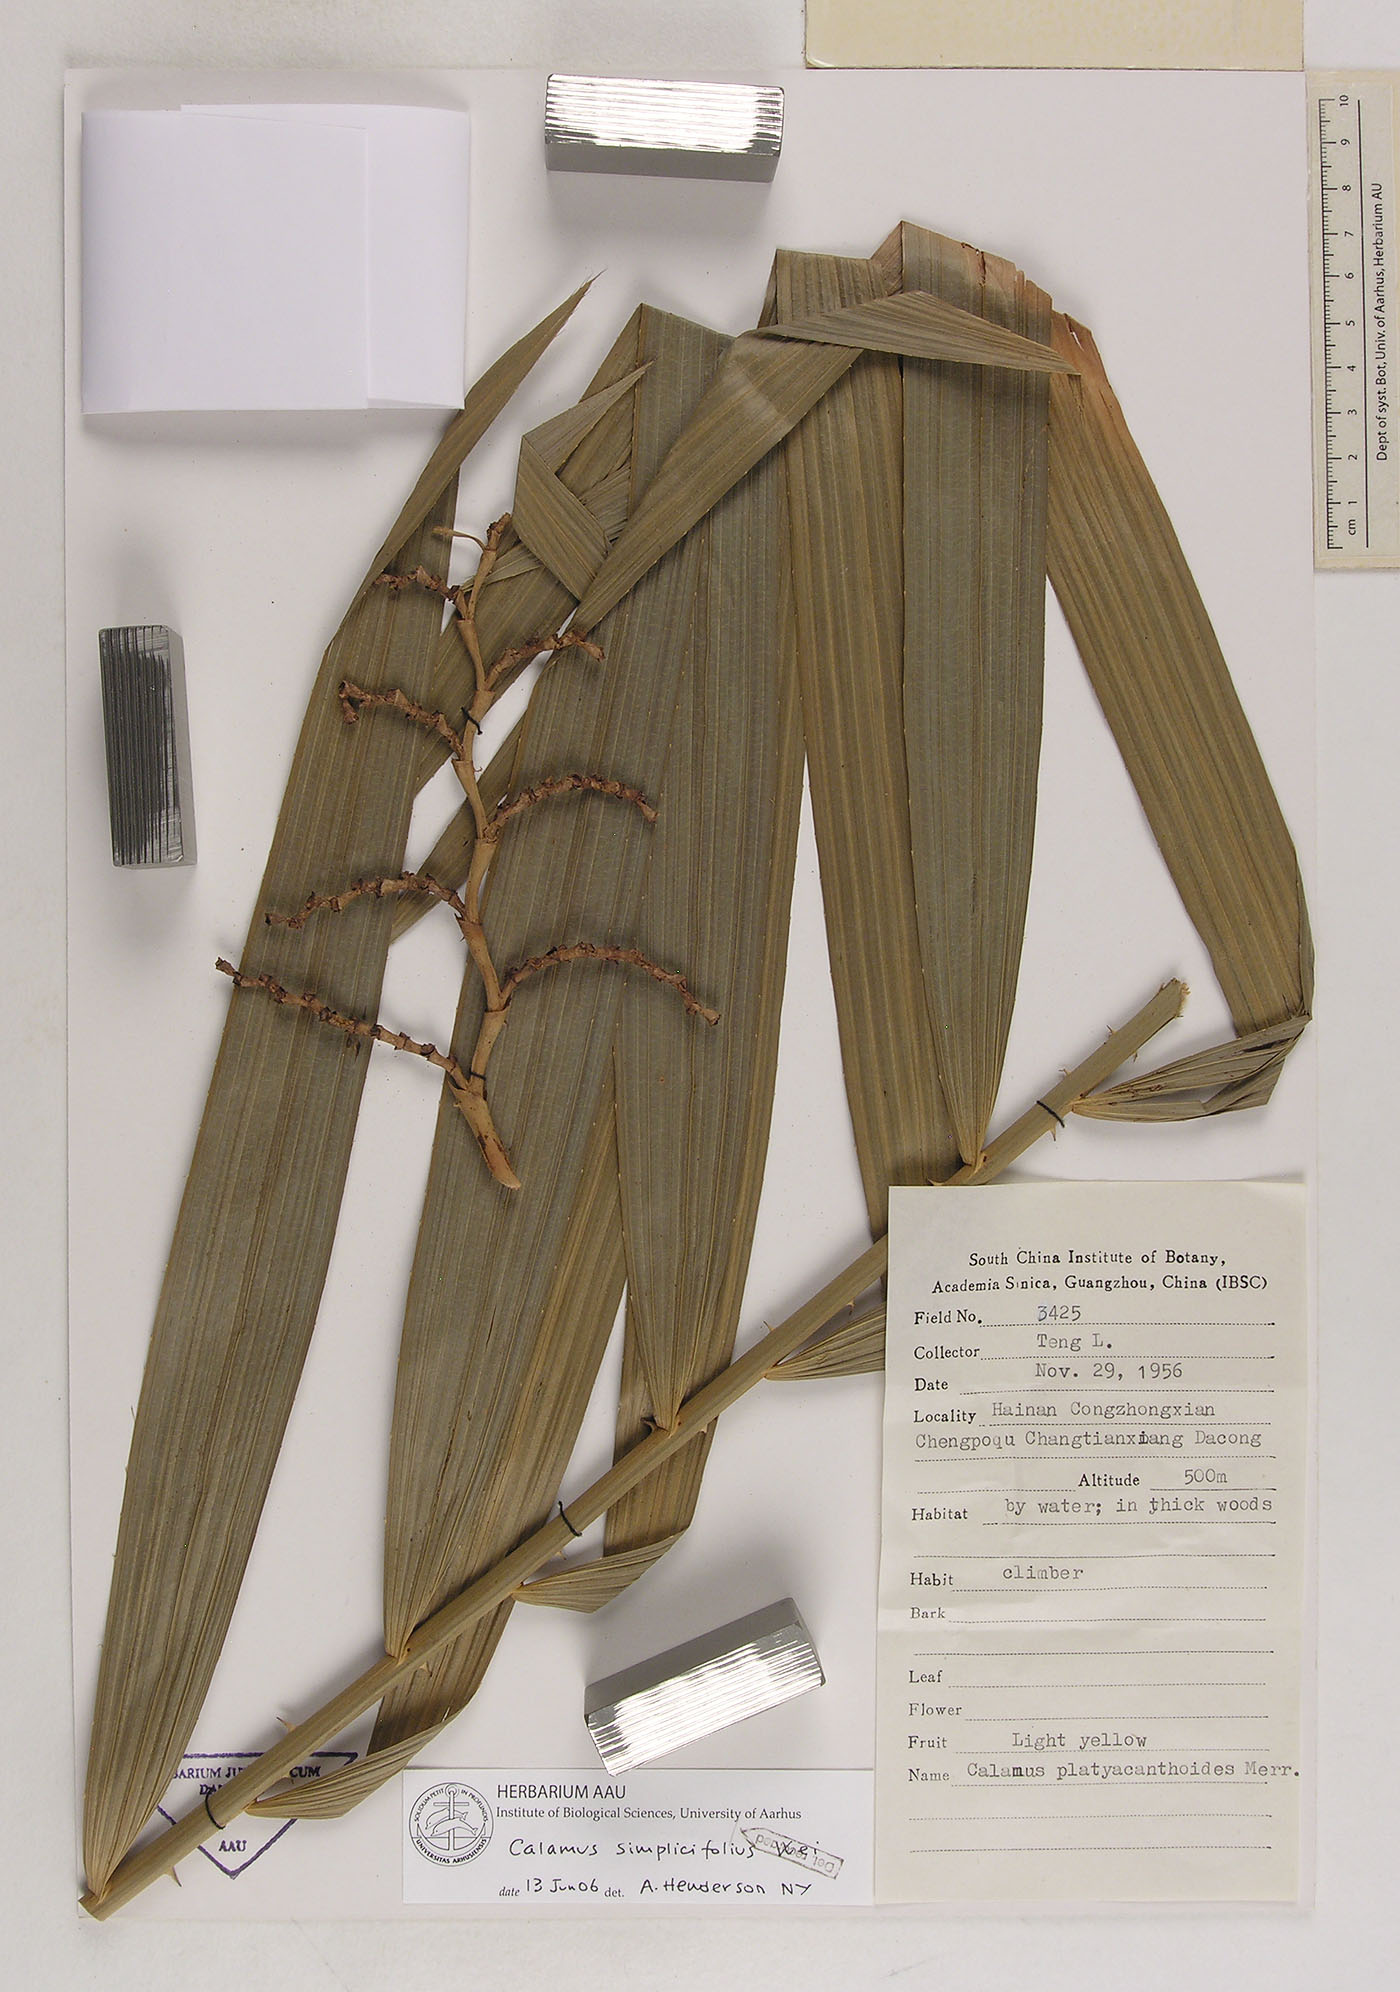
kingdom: Plantae
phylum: Tracheophyta
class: Liliopsida
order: Arecales
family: Arecaceae
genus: Calamus
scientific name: Calamus inermis
